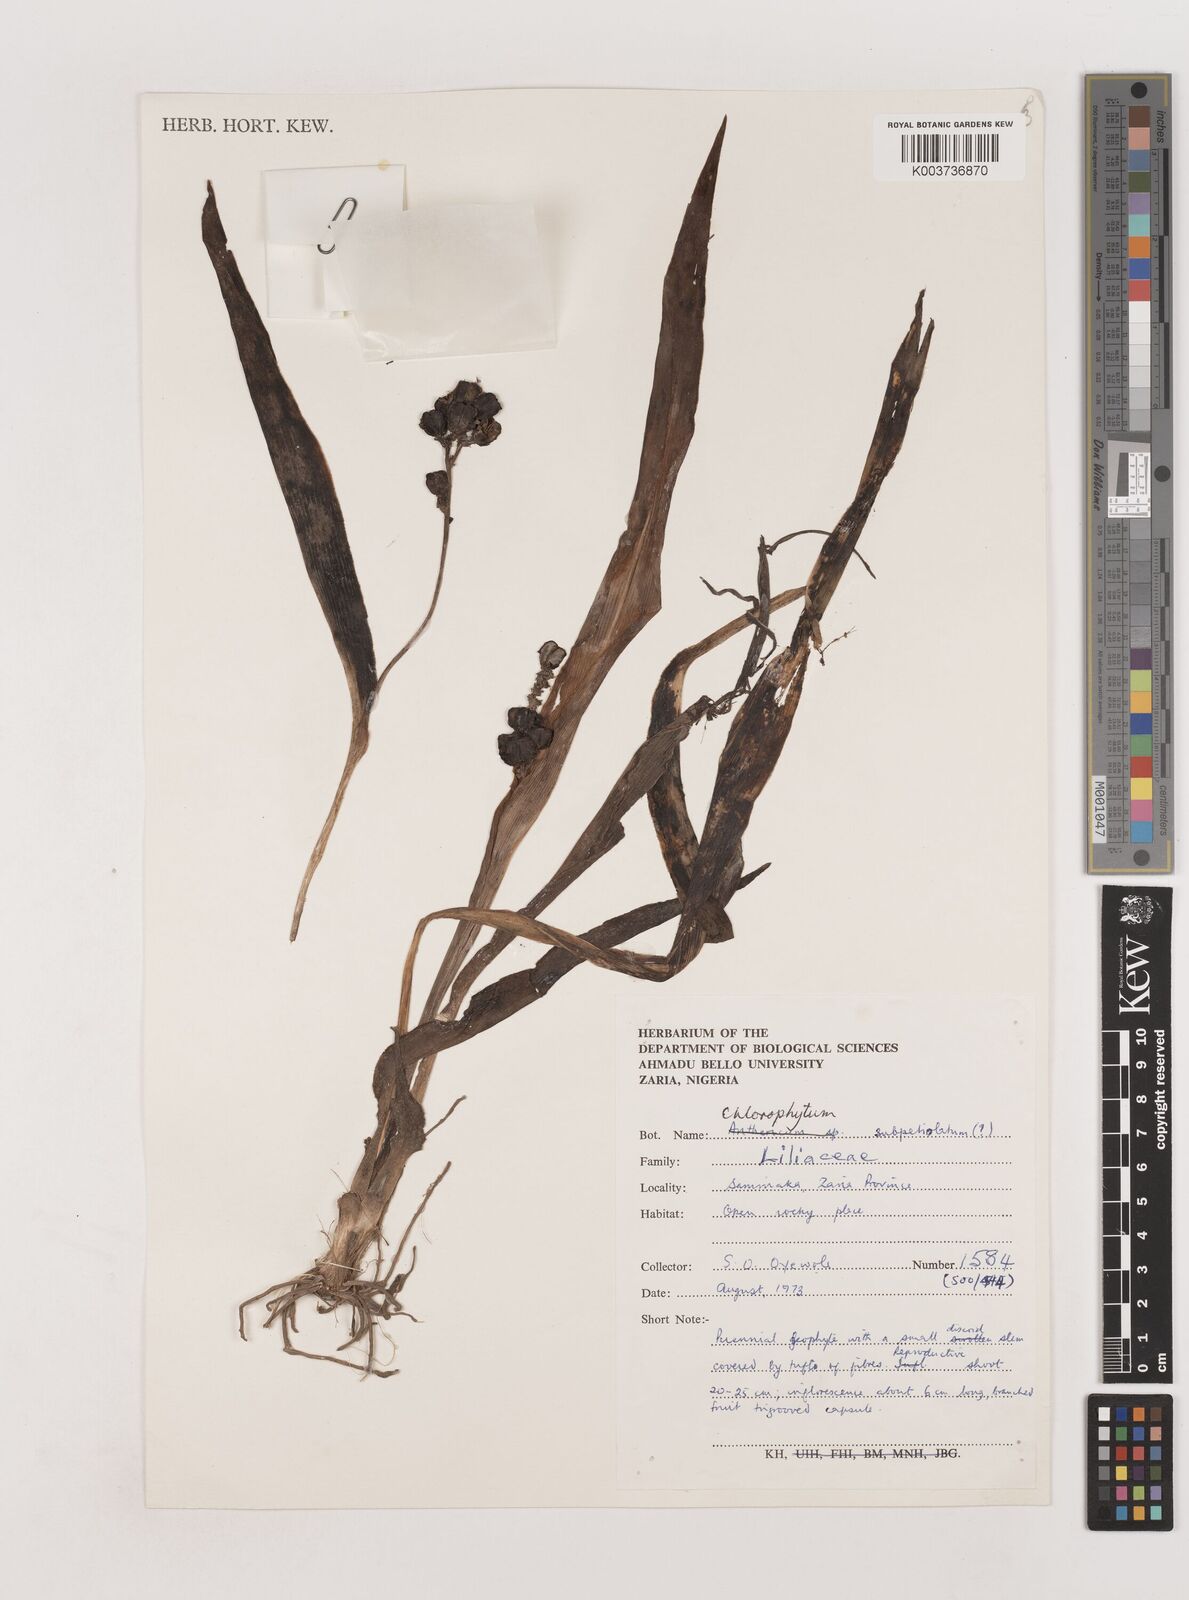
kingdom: Plantae
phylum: Tracheophyta
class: Liliopsida
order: Asparagales
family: Asparagaceae
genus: Chlorophytum
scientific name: Chlorophytum blepharophyllum
